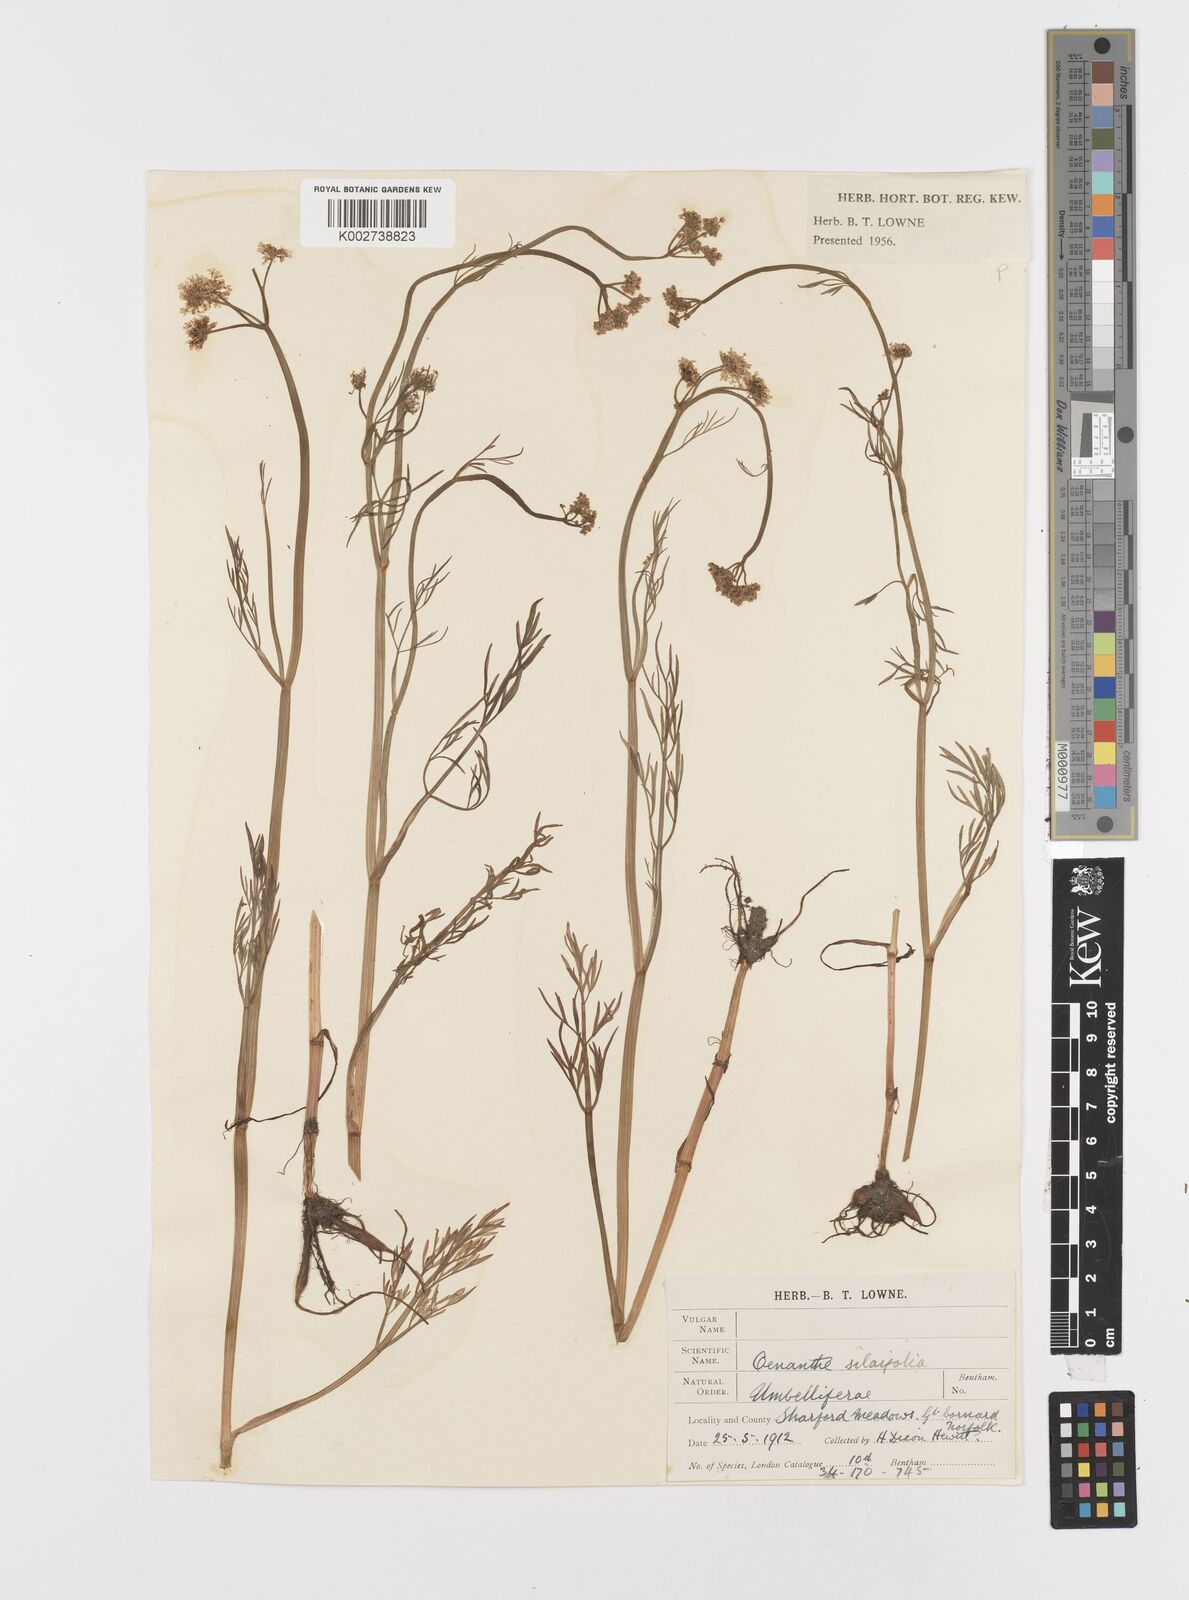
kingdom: Plantae
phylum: Tracheophyta
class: Magnoliopsida
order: Apiales
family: Apiaceae
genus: Oenanthe
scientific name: Oenanthe silaifolia
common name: Narrow-leaved water-dropwort
